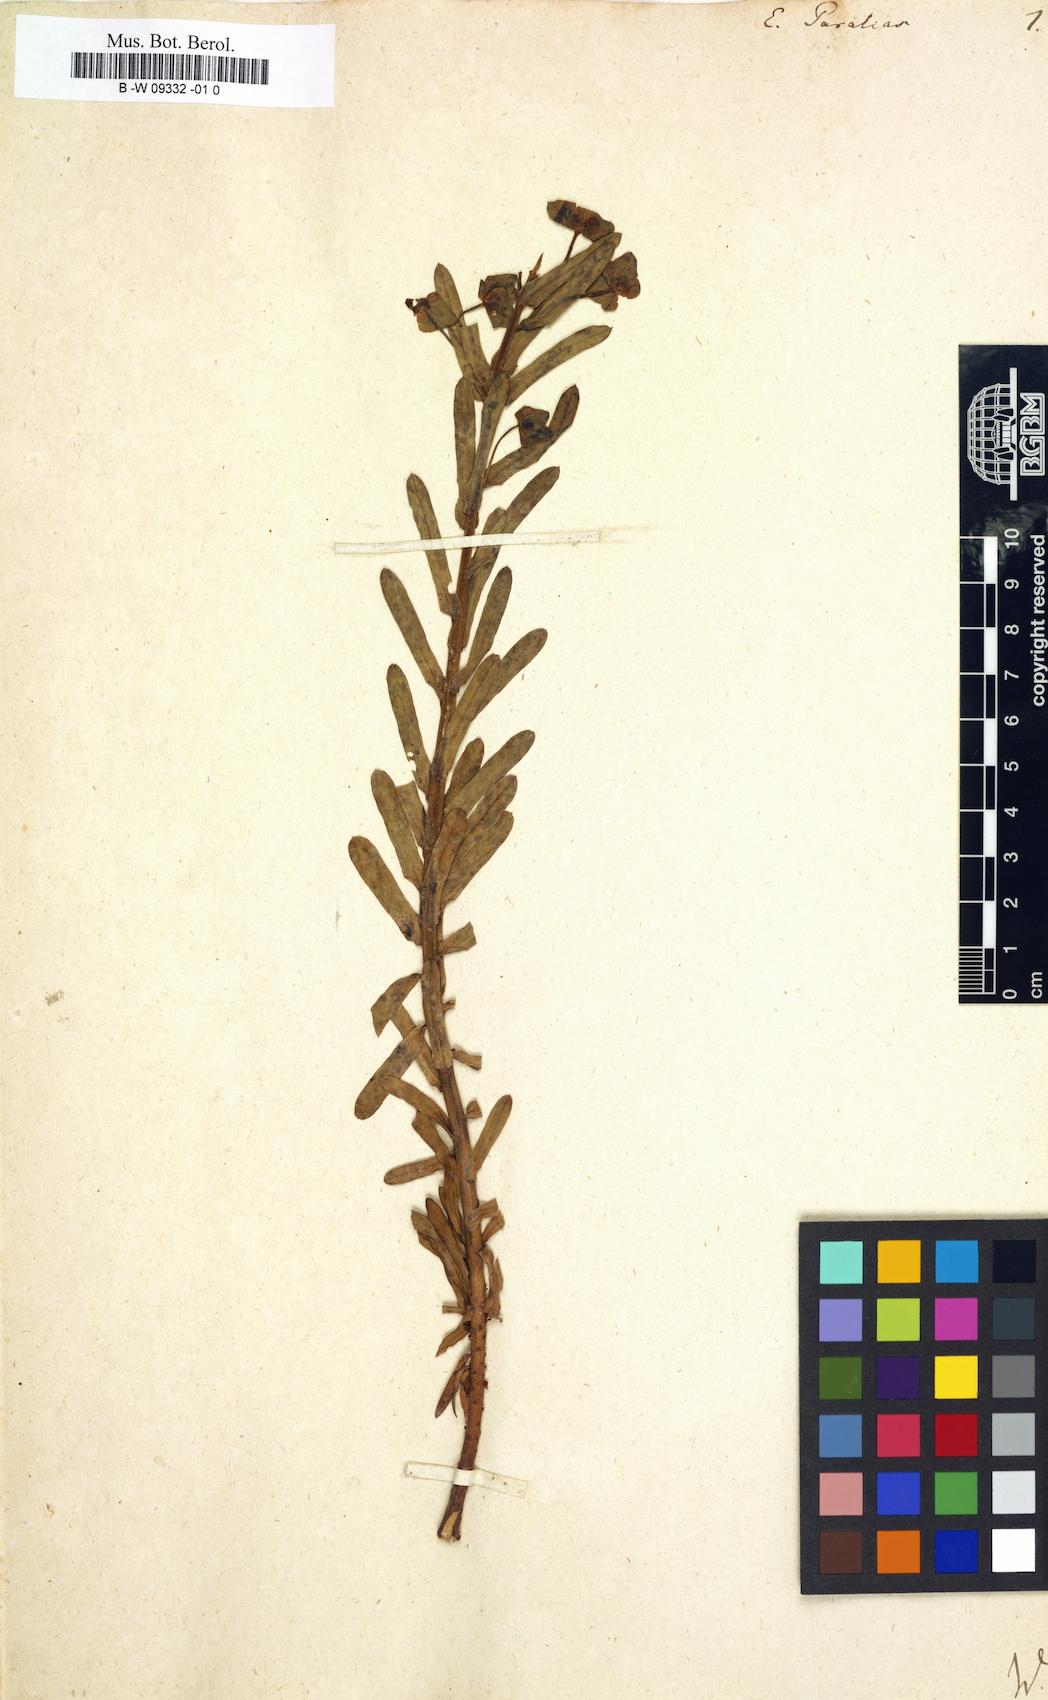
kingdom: Plantae
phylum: Tracheophyta
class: Magnoliopsida
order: Malpighiales
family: Euphorbiaceae
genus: Euphorbia
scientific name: Euphorbia paralias
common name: Sea spurge
